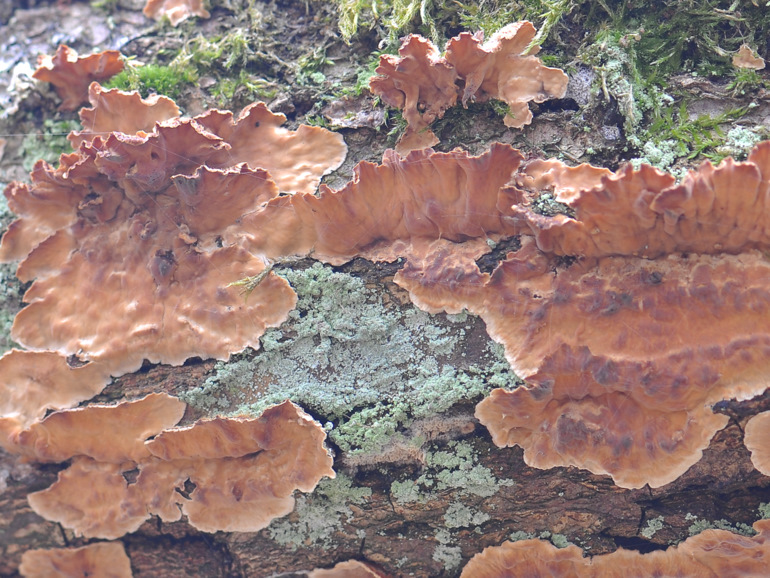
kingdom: Fungi
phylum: Basidiomycota
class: Agaricomycetes
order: Russulales
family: Stereaceae
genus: Stereum
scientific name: Stereum hirsutum
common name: håret lædersvamp
